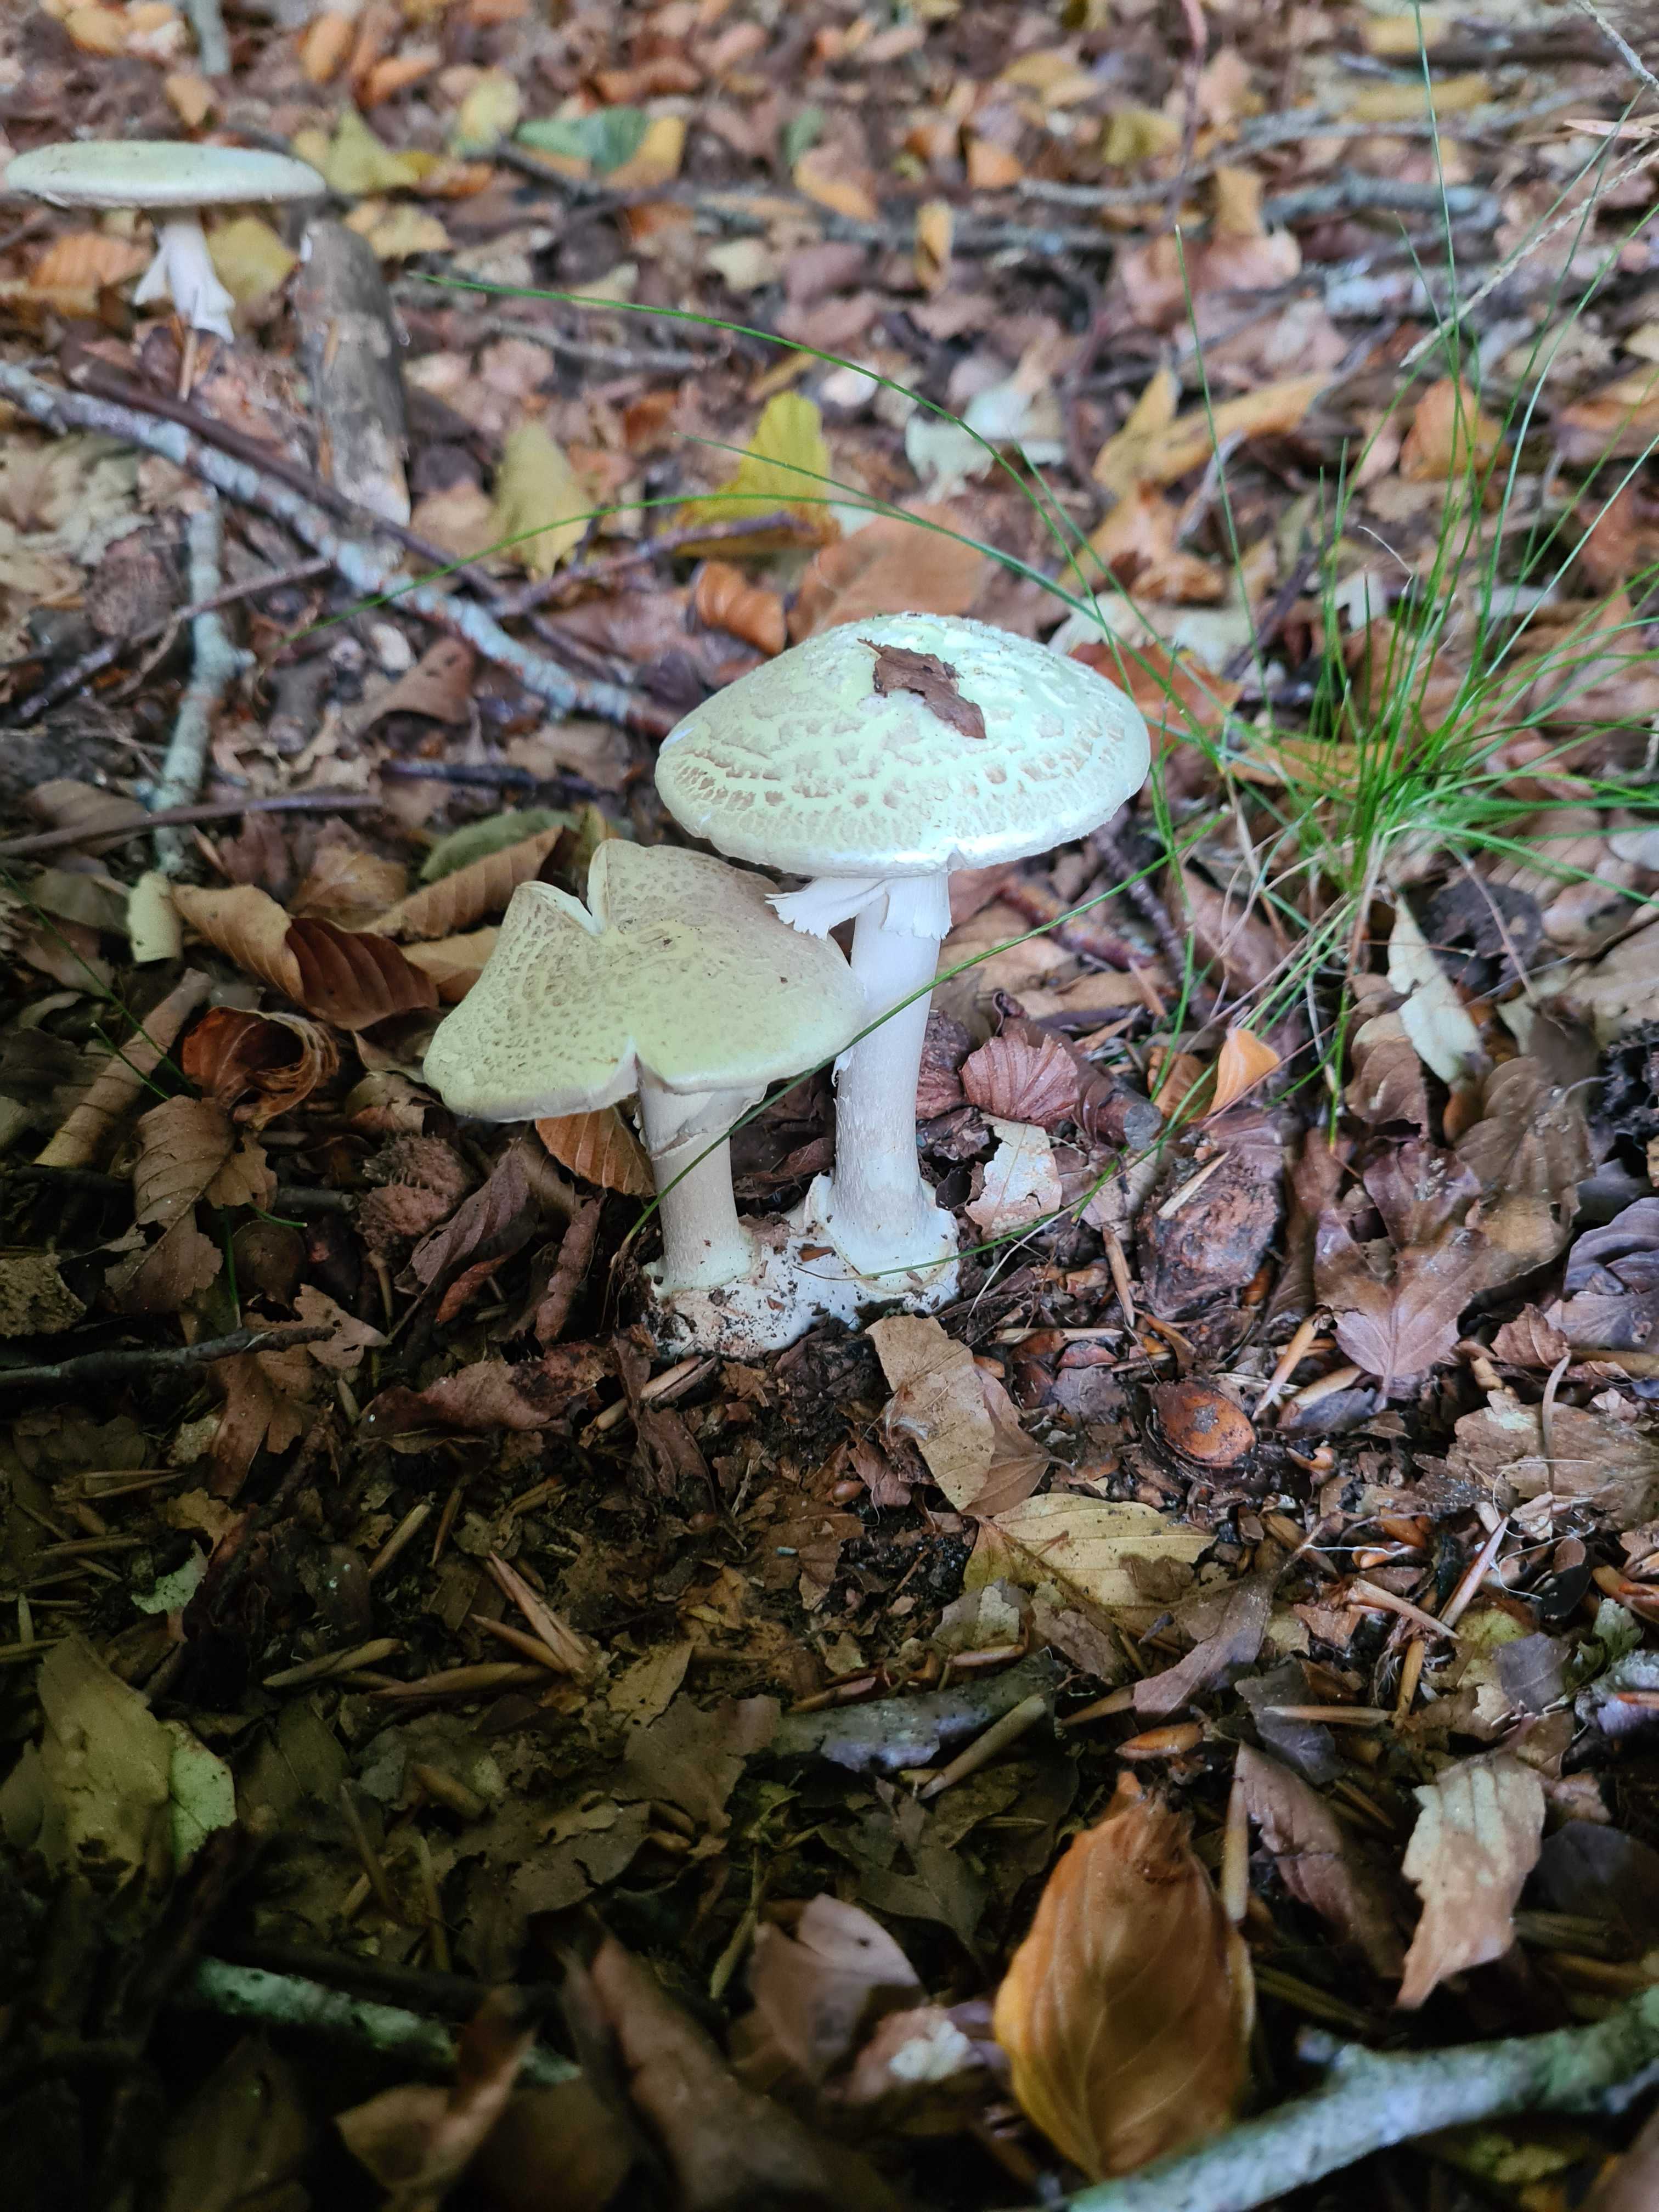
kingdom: Fungi
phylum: Basidiomycota
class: Agaricomycetes
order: Agaricales
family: Amanitaceae
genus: Amanita
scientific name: Amanita citrina
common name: kugleknoldet fluesvamp
